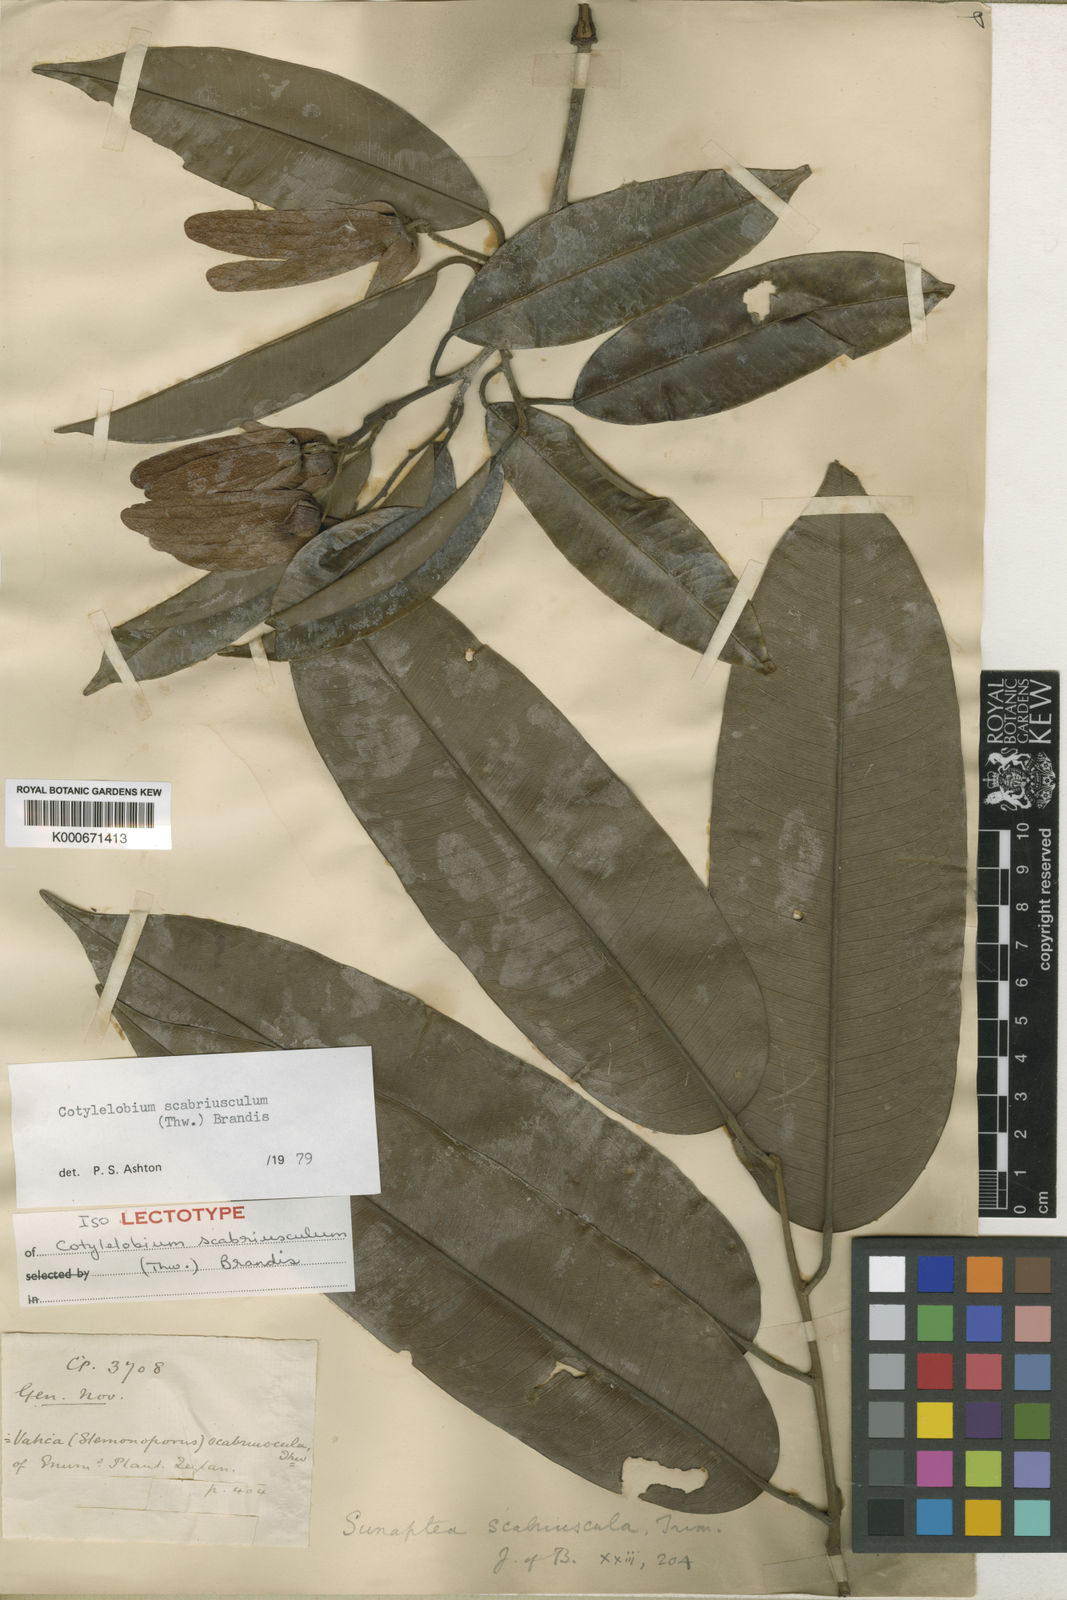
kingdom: Plantae
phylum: Tracheophyta
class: Magnoliopsida
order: Malvales
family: Dipterocarpaceae
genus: Cotylelobium
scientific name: Cotylelobium scabriusculum
